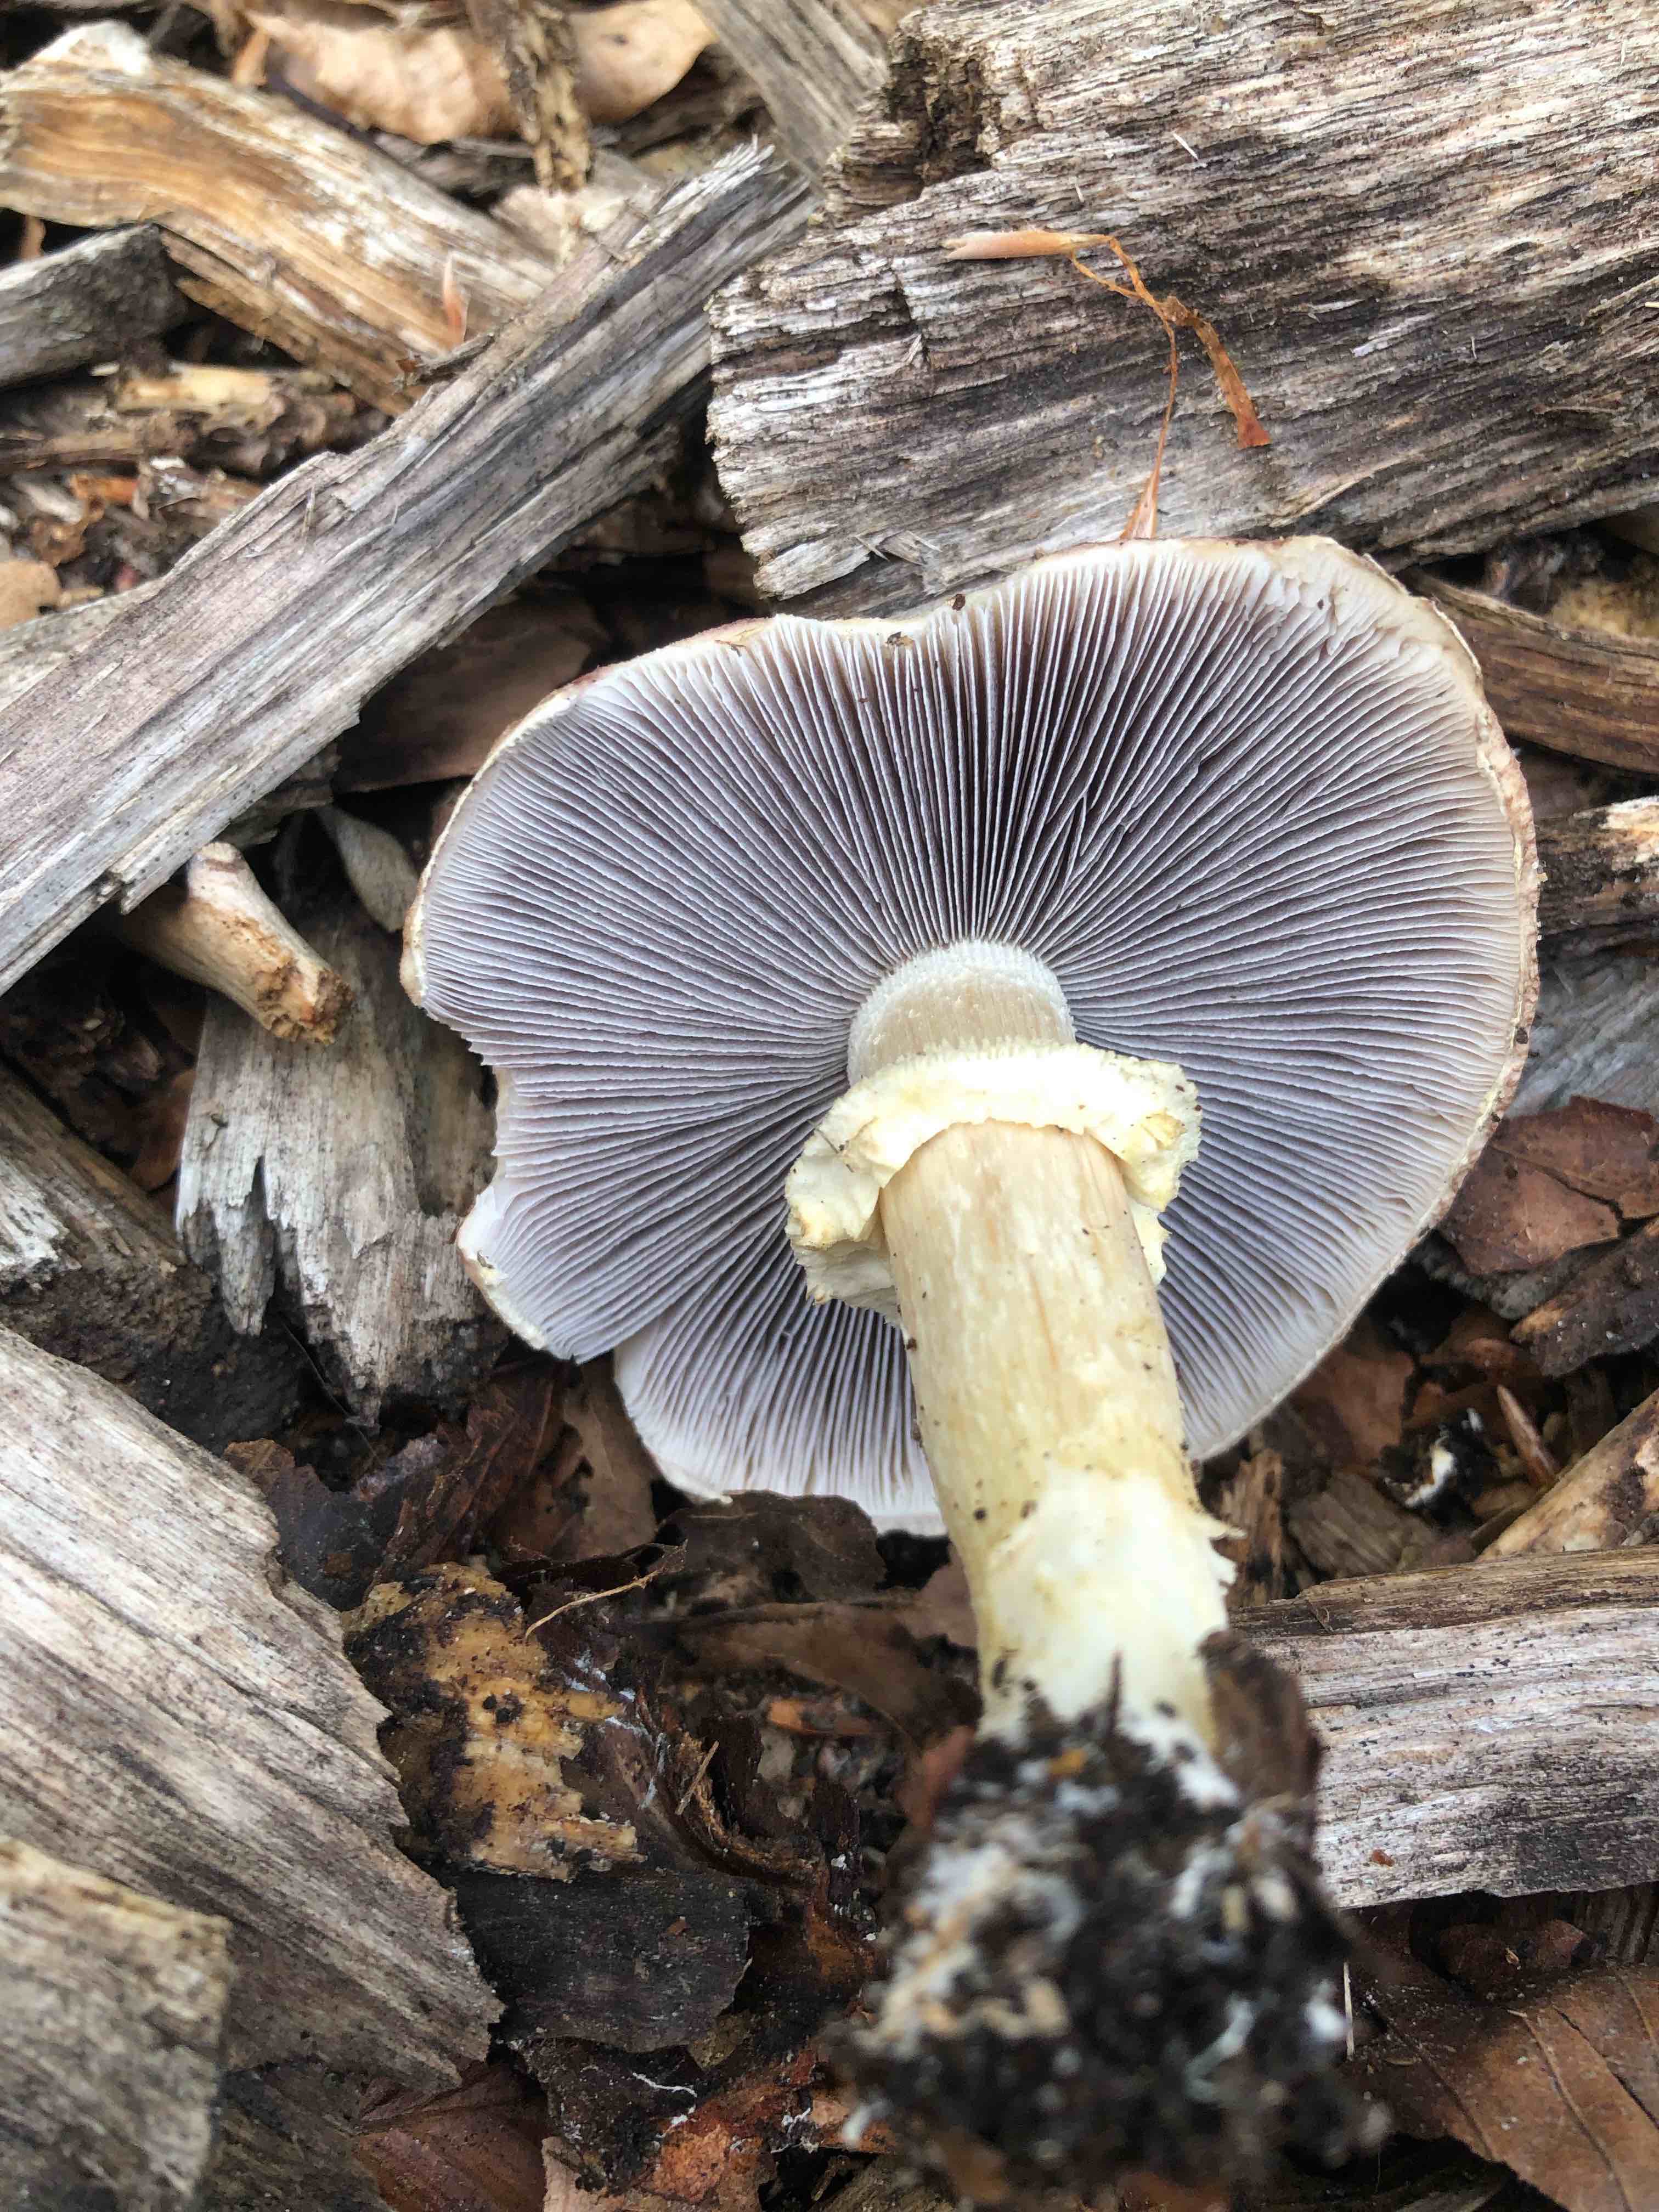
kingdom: Fungi
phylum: Basidiomycota
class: Agaricomycetes
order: Agaricales
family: Strophariaceae
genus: Stropharia
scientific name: Stropharia rugosoannulata
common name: rødbrun bredblad
